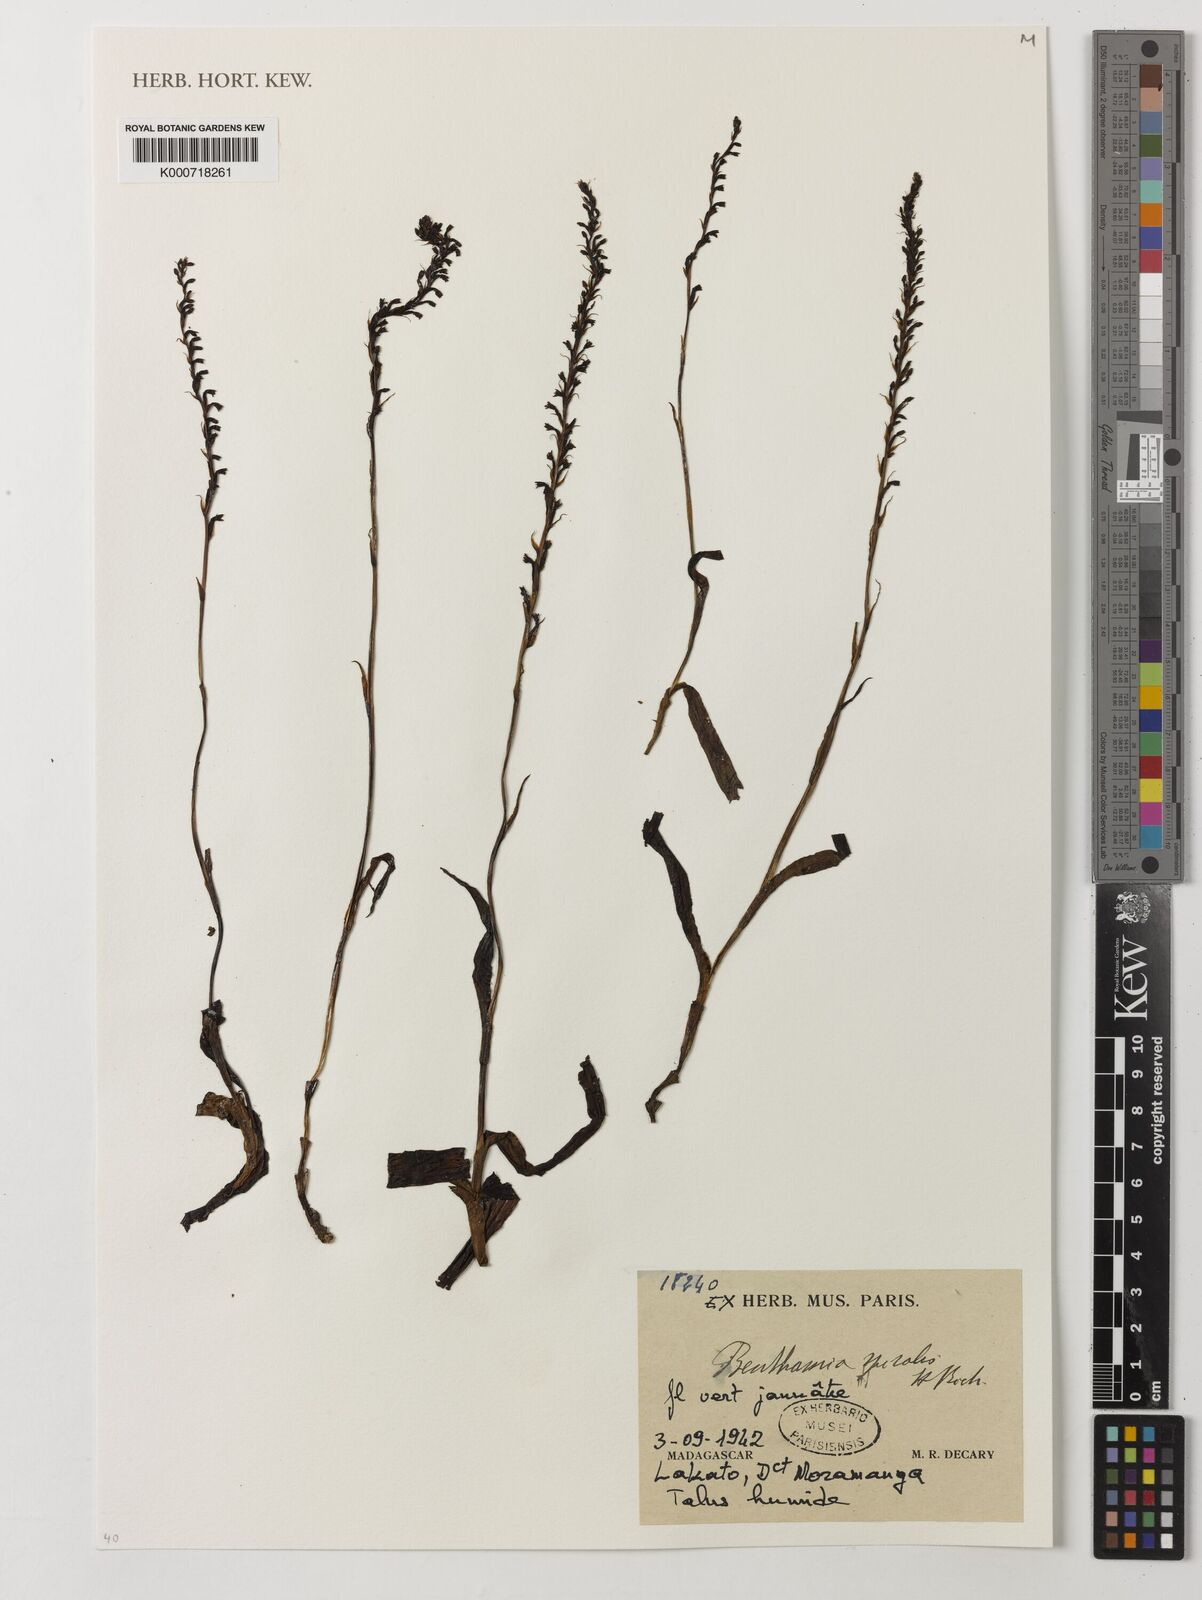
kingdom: Plantae
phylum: Tracheophyta
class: Liliopsida
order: Asparagales
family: Orchidaceae
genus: Benthamia
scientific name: Benthamia africana
